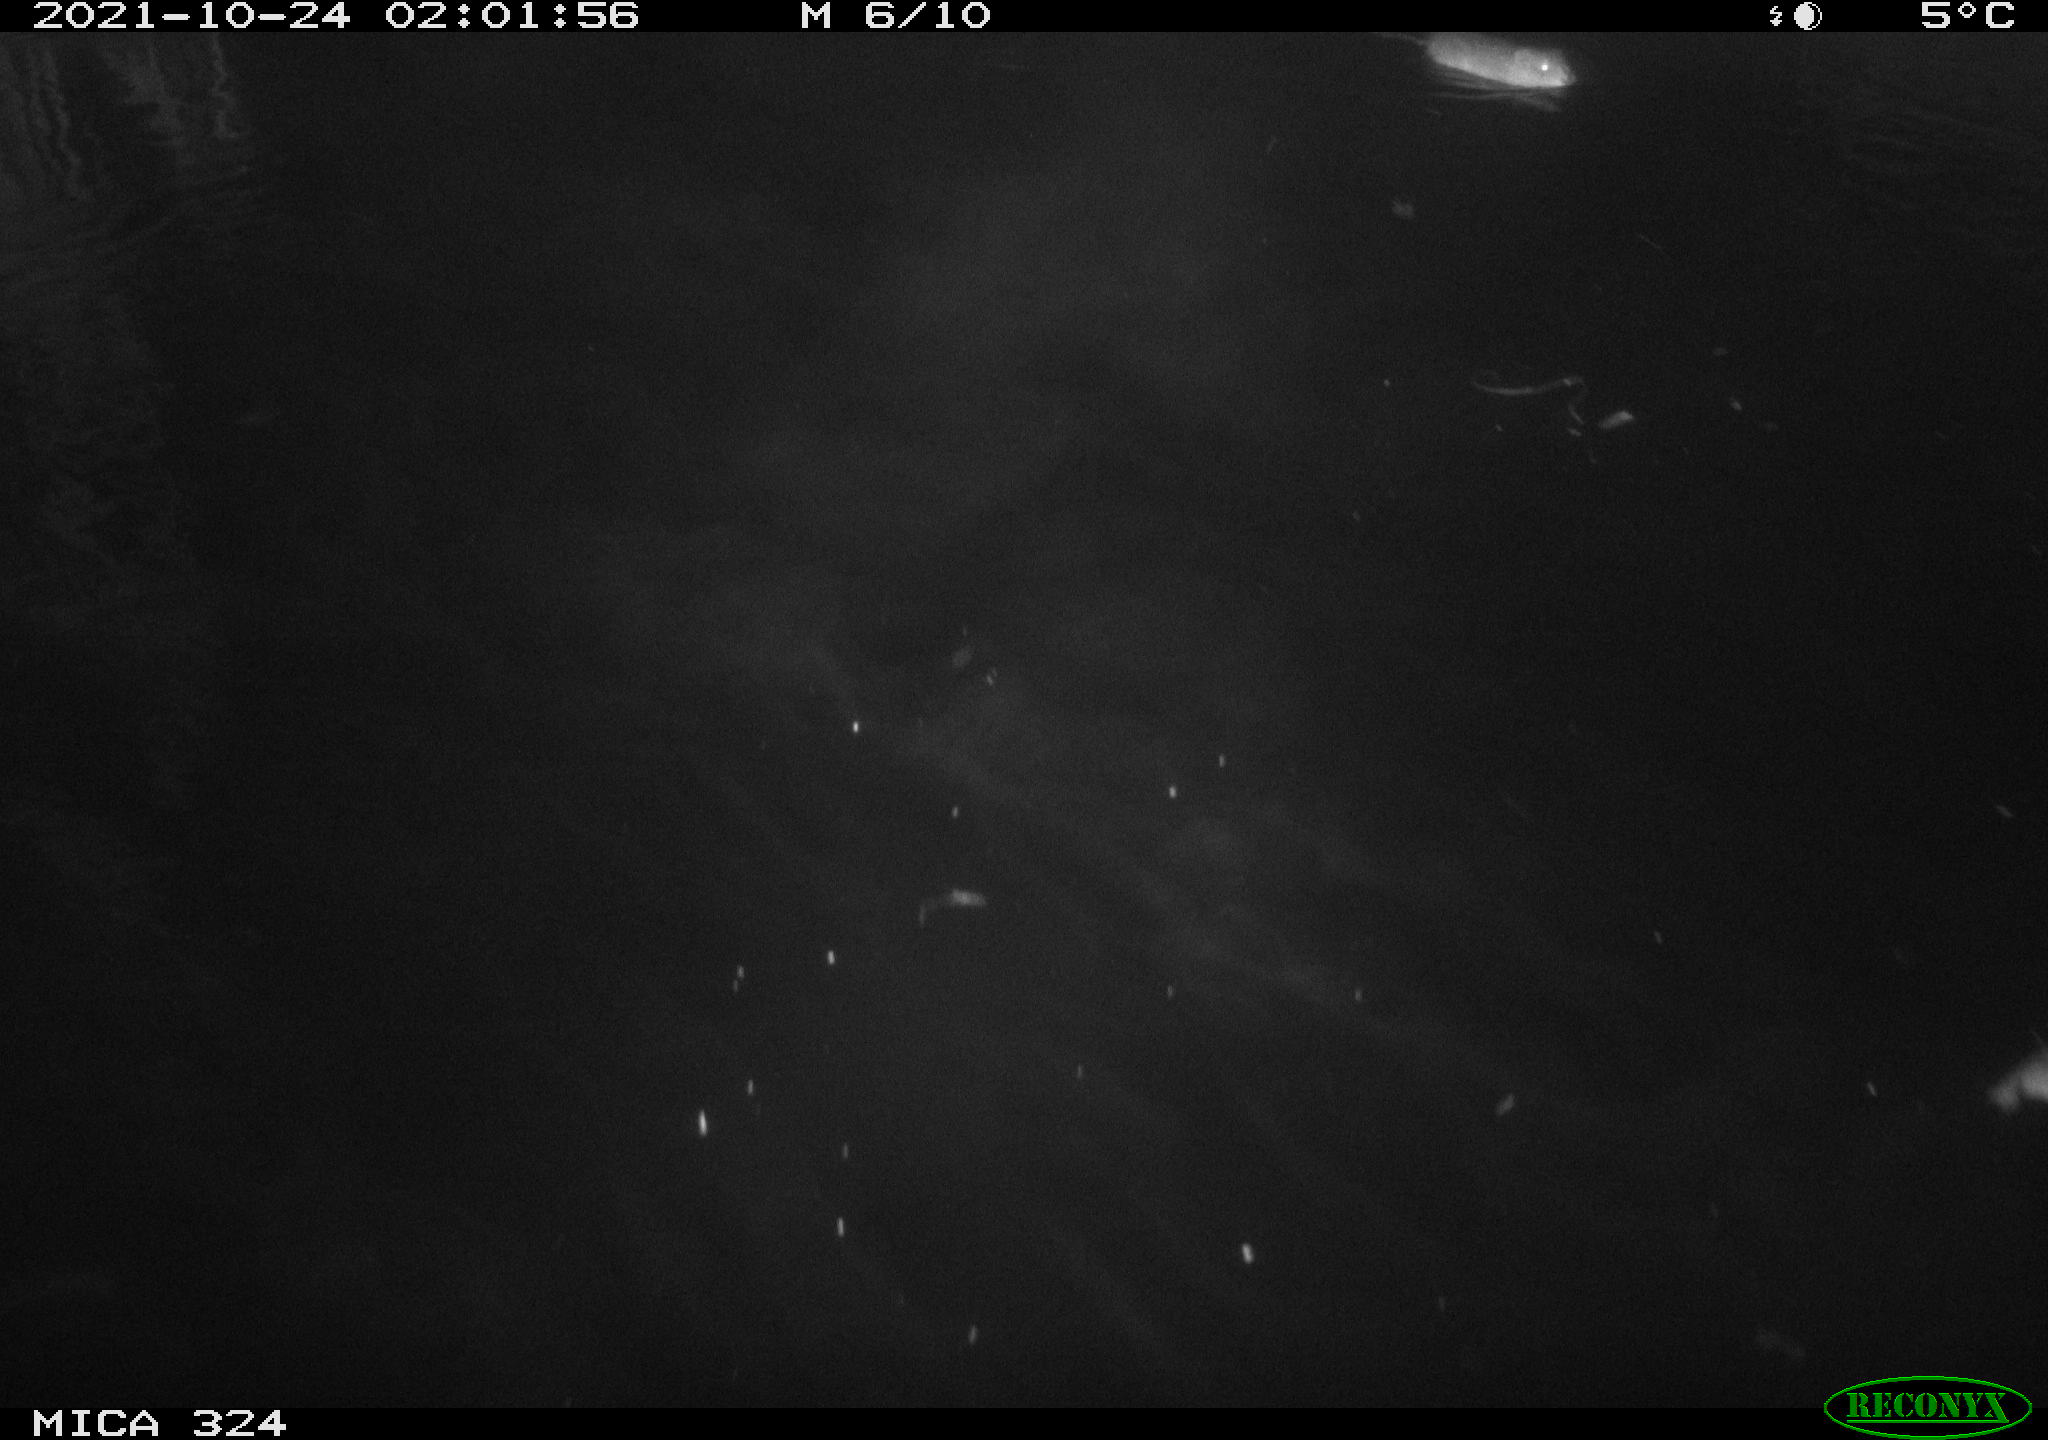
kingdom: Animalia
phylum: Chordata
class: Mammalia
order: Rodentia
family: Cricetidae
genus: Ondatra
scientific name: Ondatra zibethicus
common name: Muskrat
